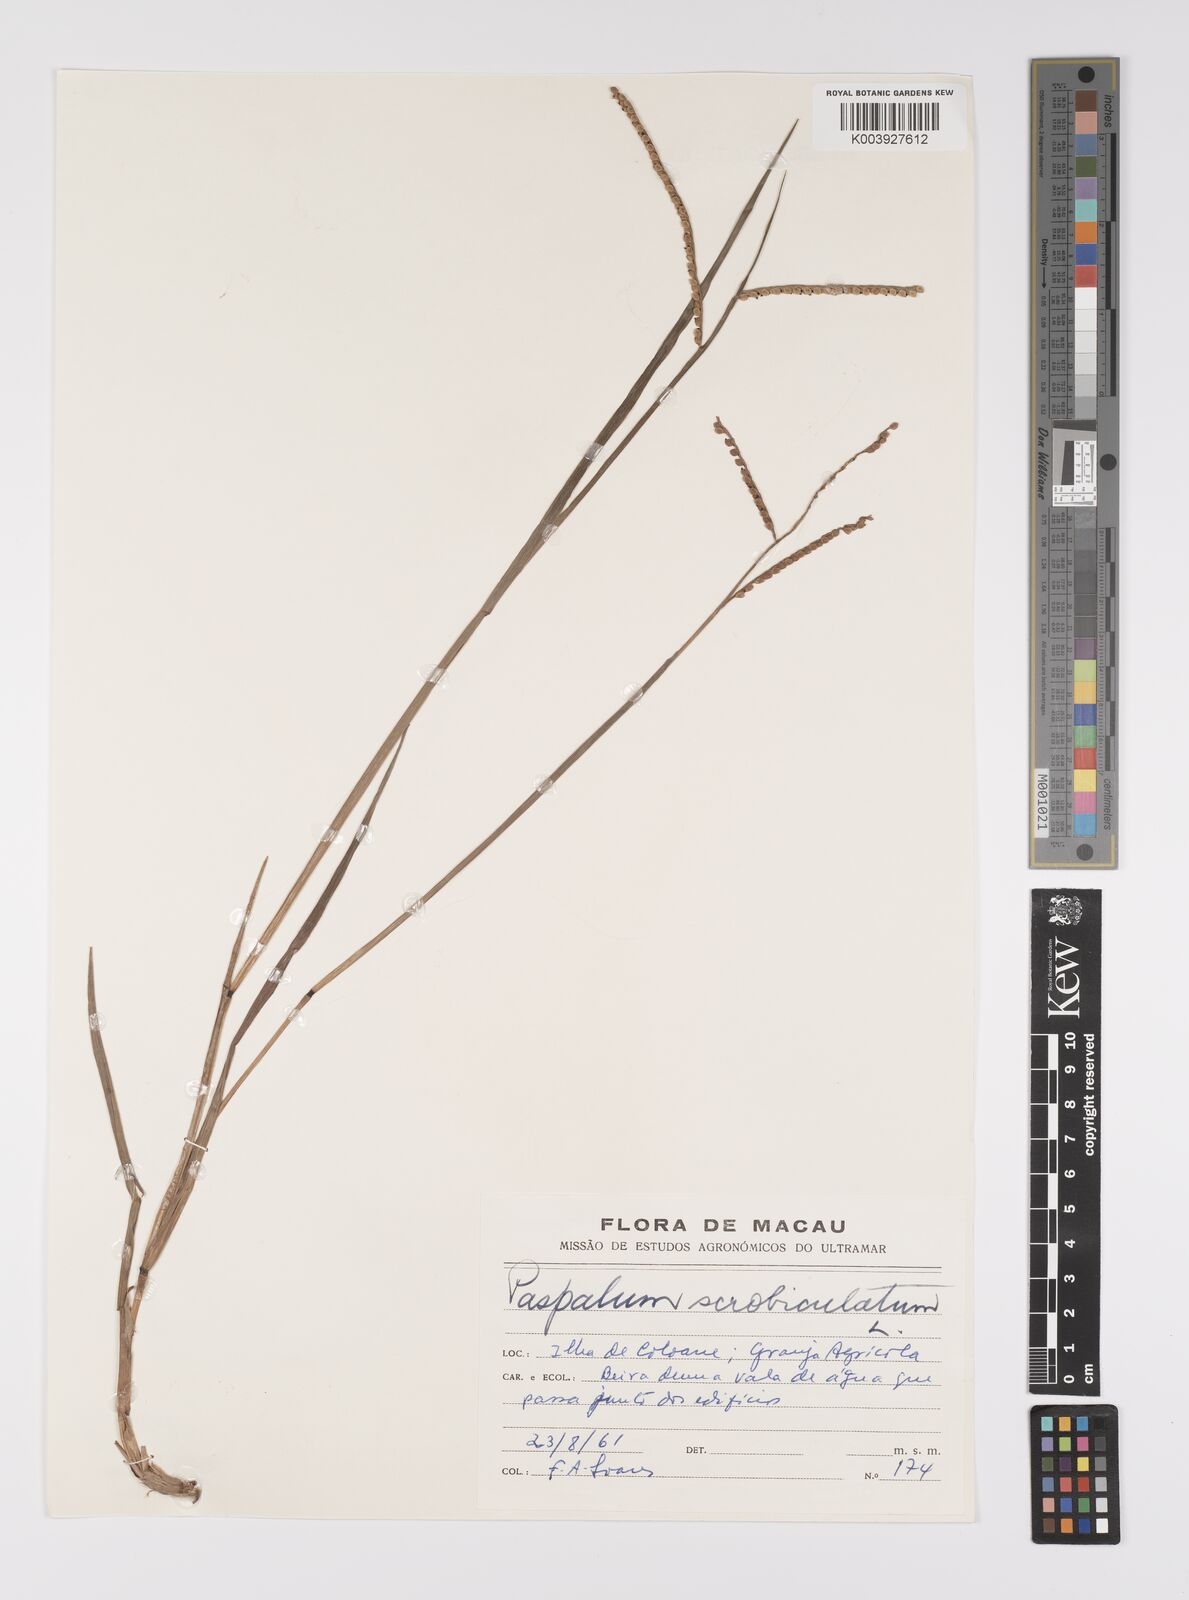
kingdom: Plantae
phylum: Tracheophyta
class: Liliopsida
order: Poales
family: Poaceae
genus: Paspalum
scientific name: Paspalum scrobiculatum
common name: Kodo millet
